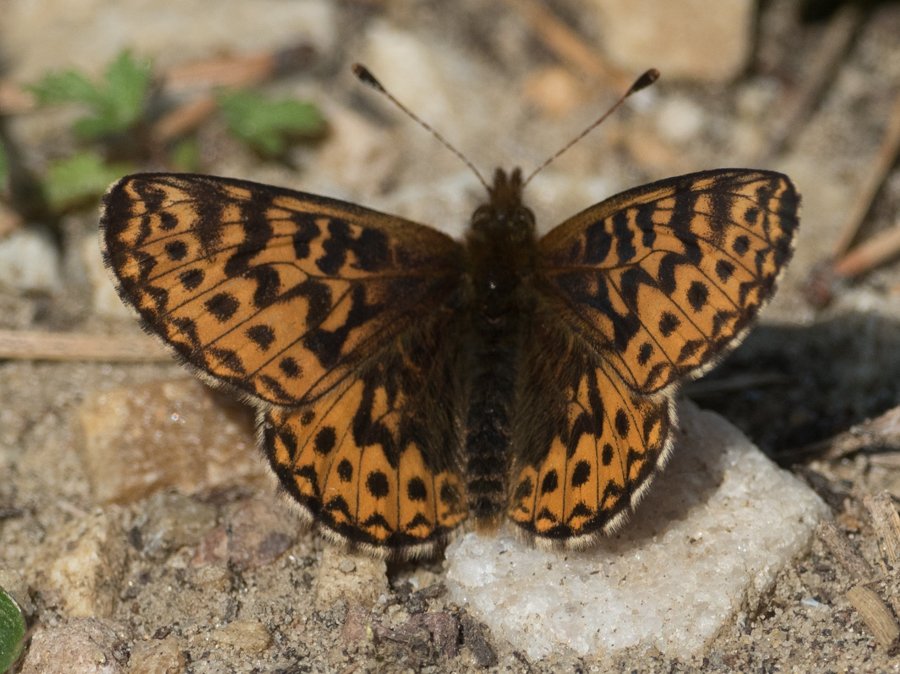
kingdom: Animalia
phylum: Arthropoda
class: Insecta
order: Lepidoptera
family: Nymphalidae
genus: Boloria
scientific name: Boloria freija
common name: Freija Fritillary
